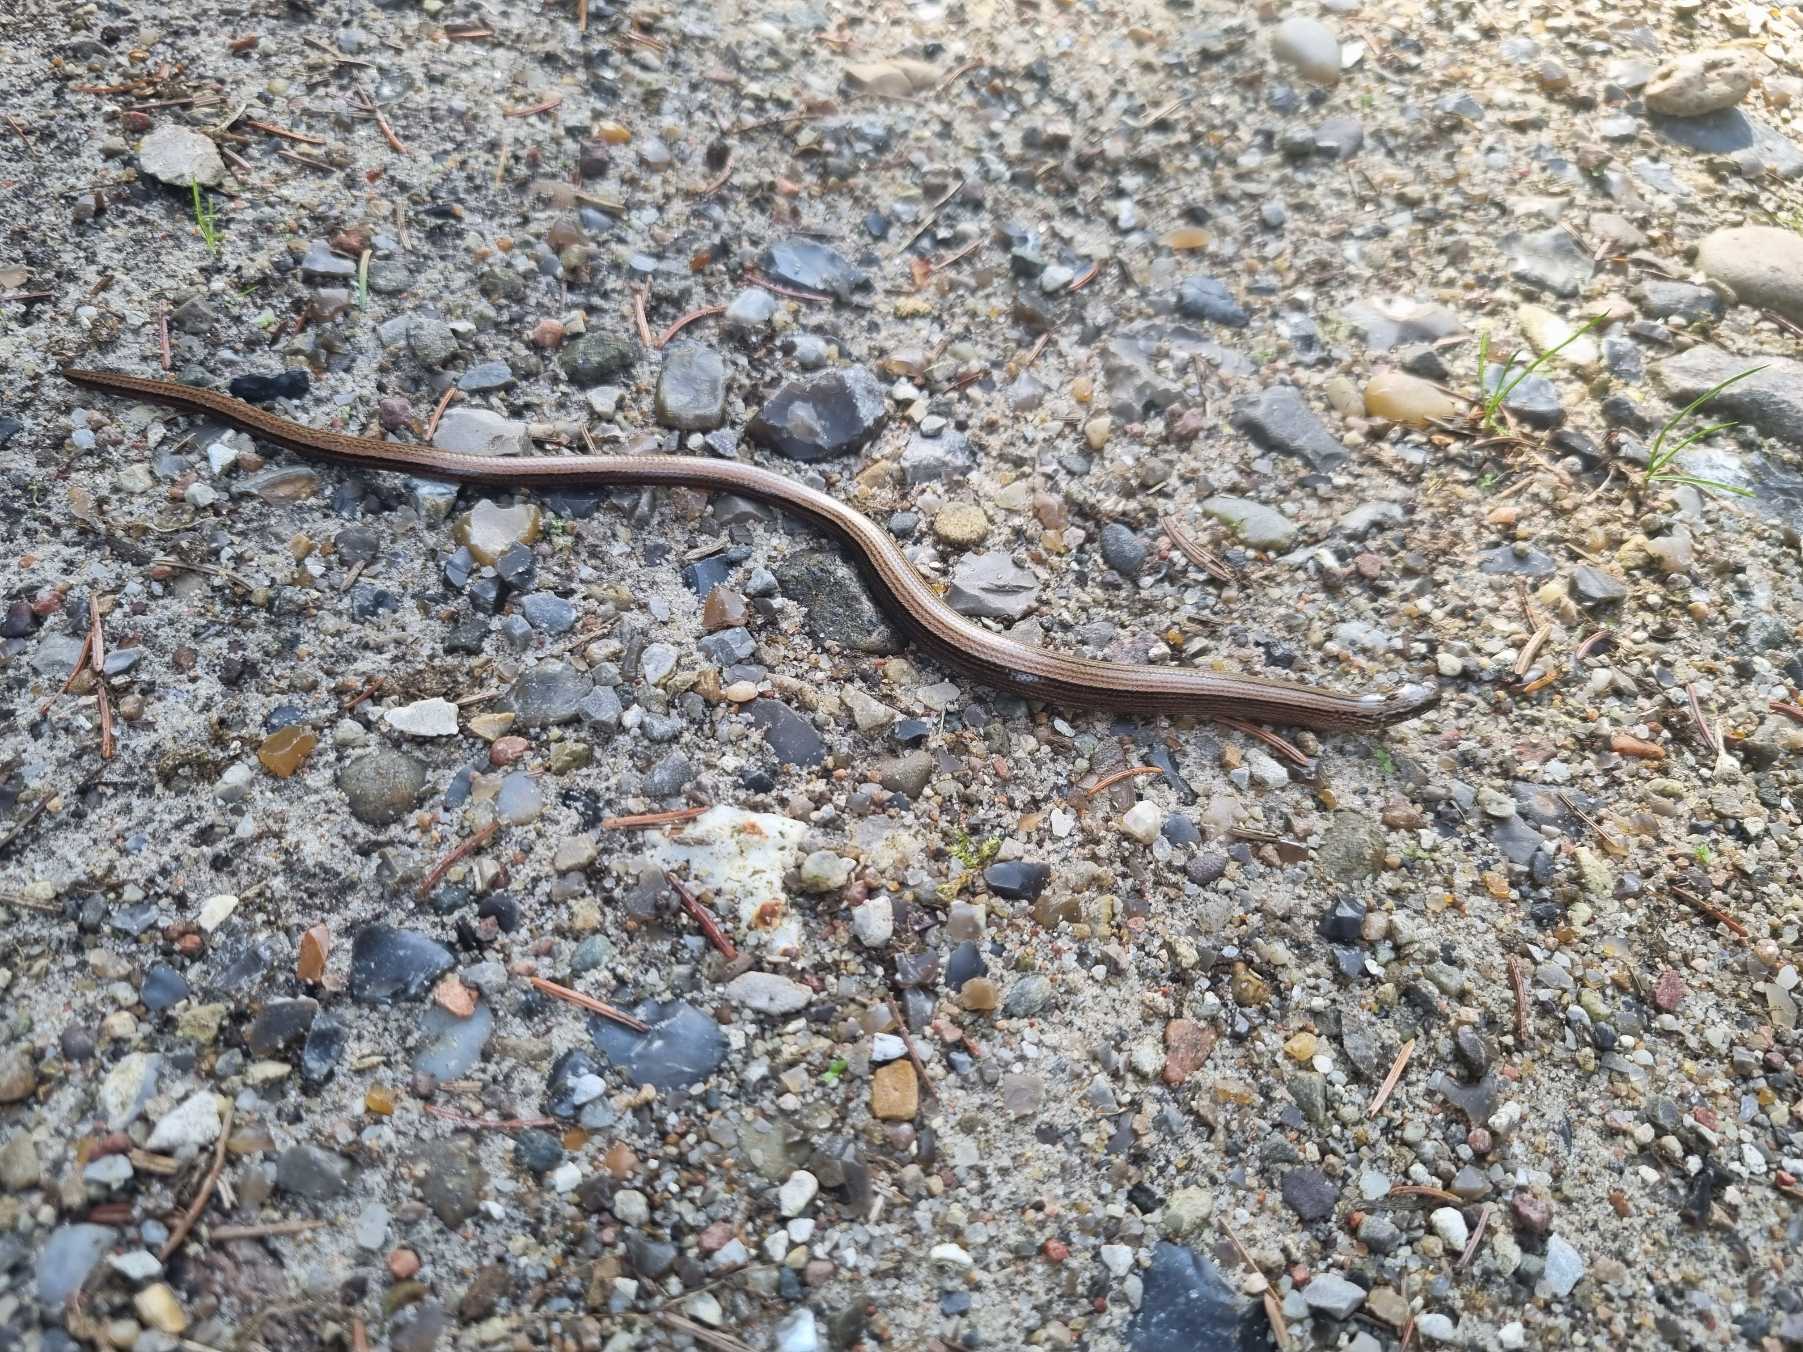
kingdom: Animalia
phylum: Chordata
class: Squamata
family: Anguidae
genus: Anguis
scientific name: Anguis fragilis
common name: Stålorm
